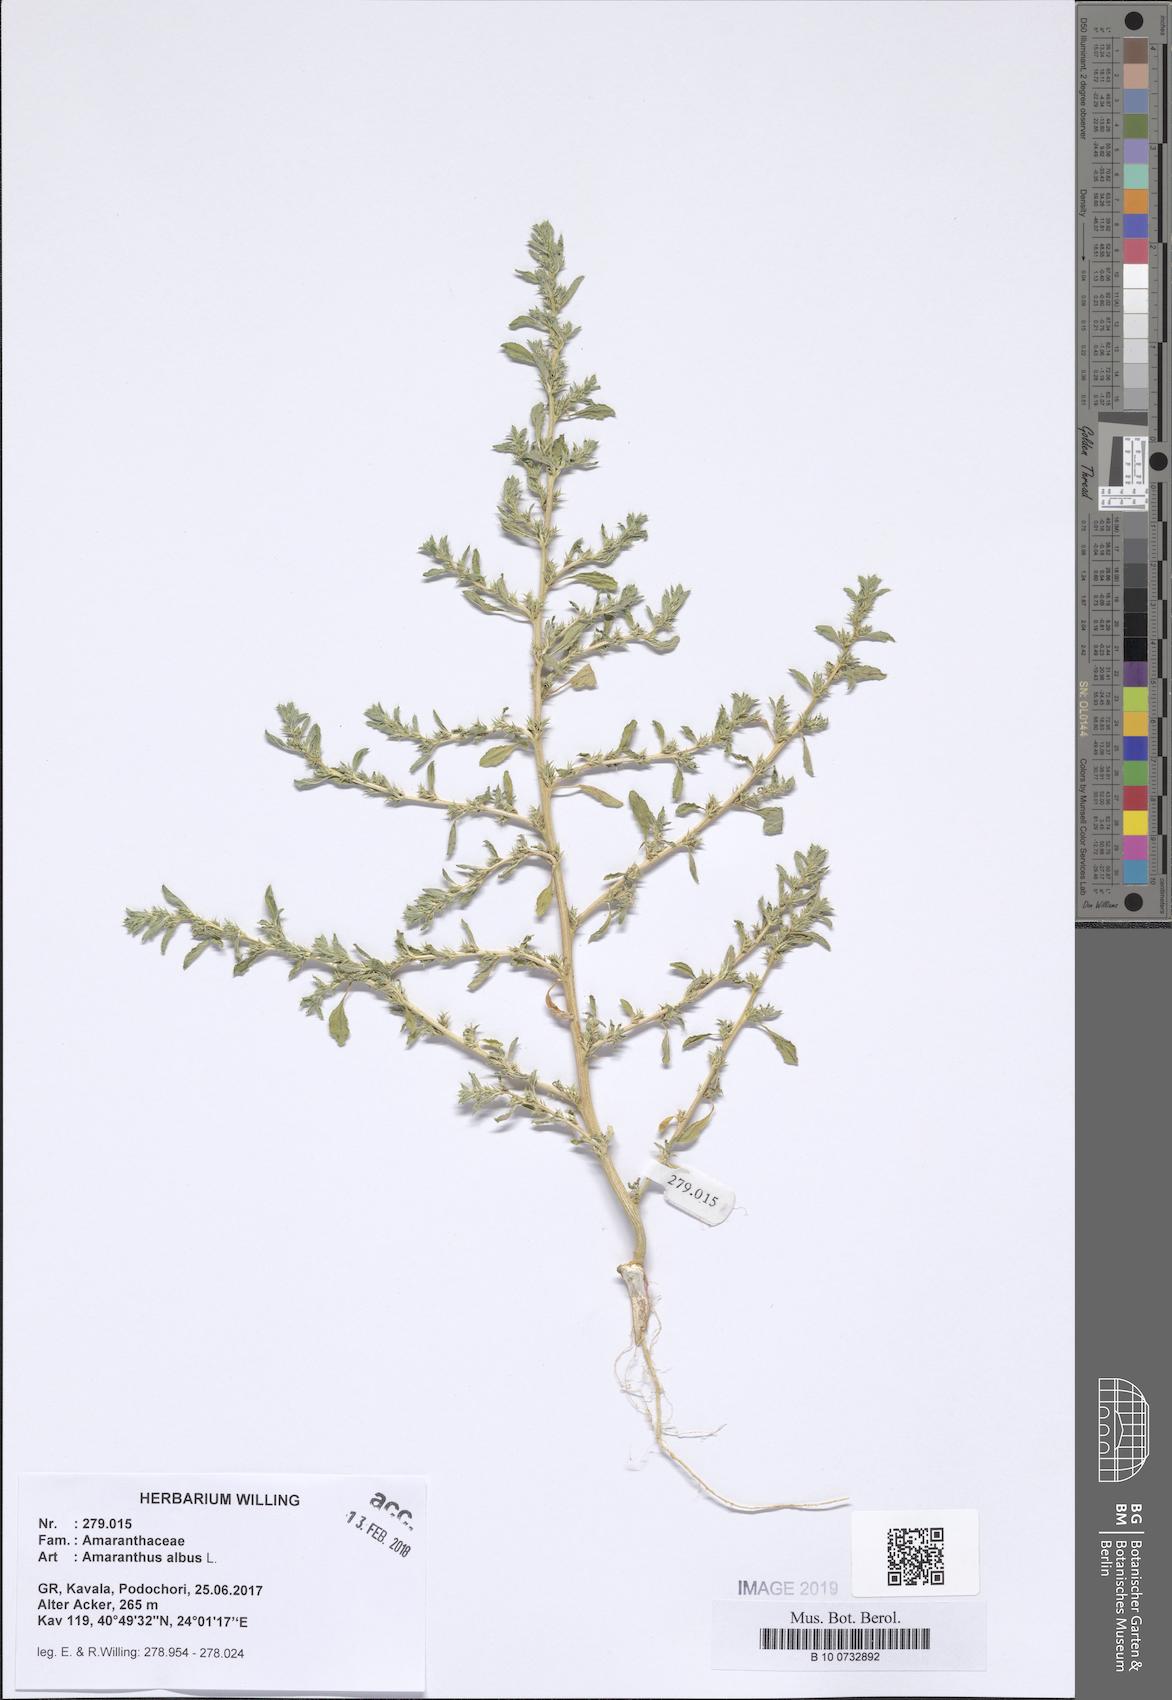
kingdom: Plantae
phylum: Tracheophyta
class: Magnoliopsida
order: Caryophyllales
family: Amaranthaceae
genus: Amaranthus
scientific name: Amaranthus albus
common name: White pigweed
